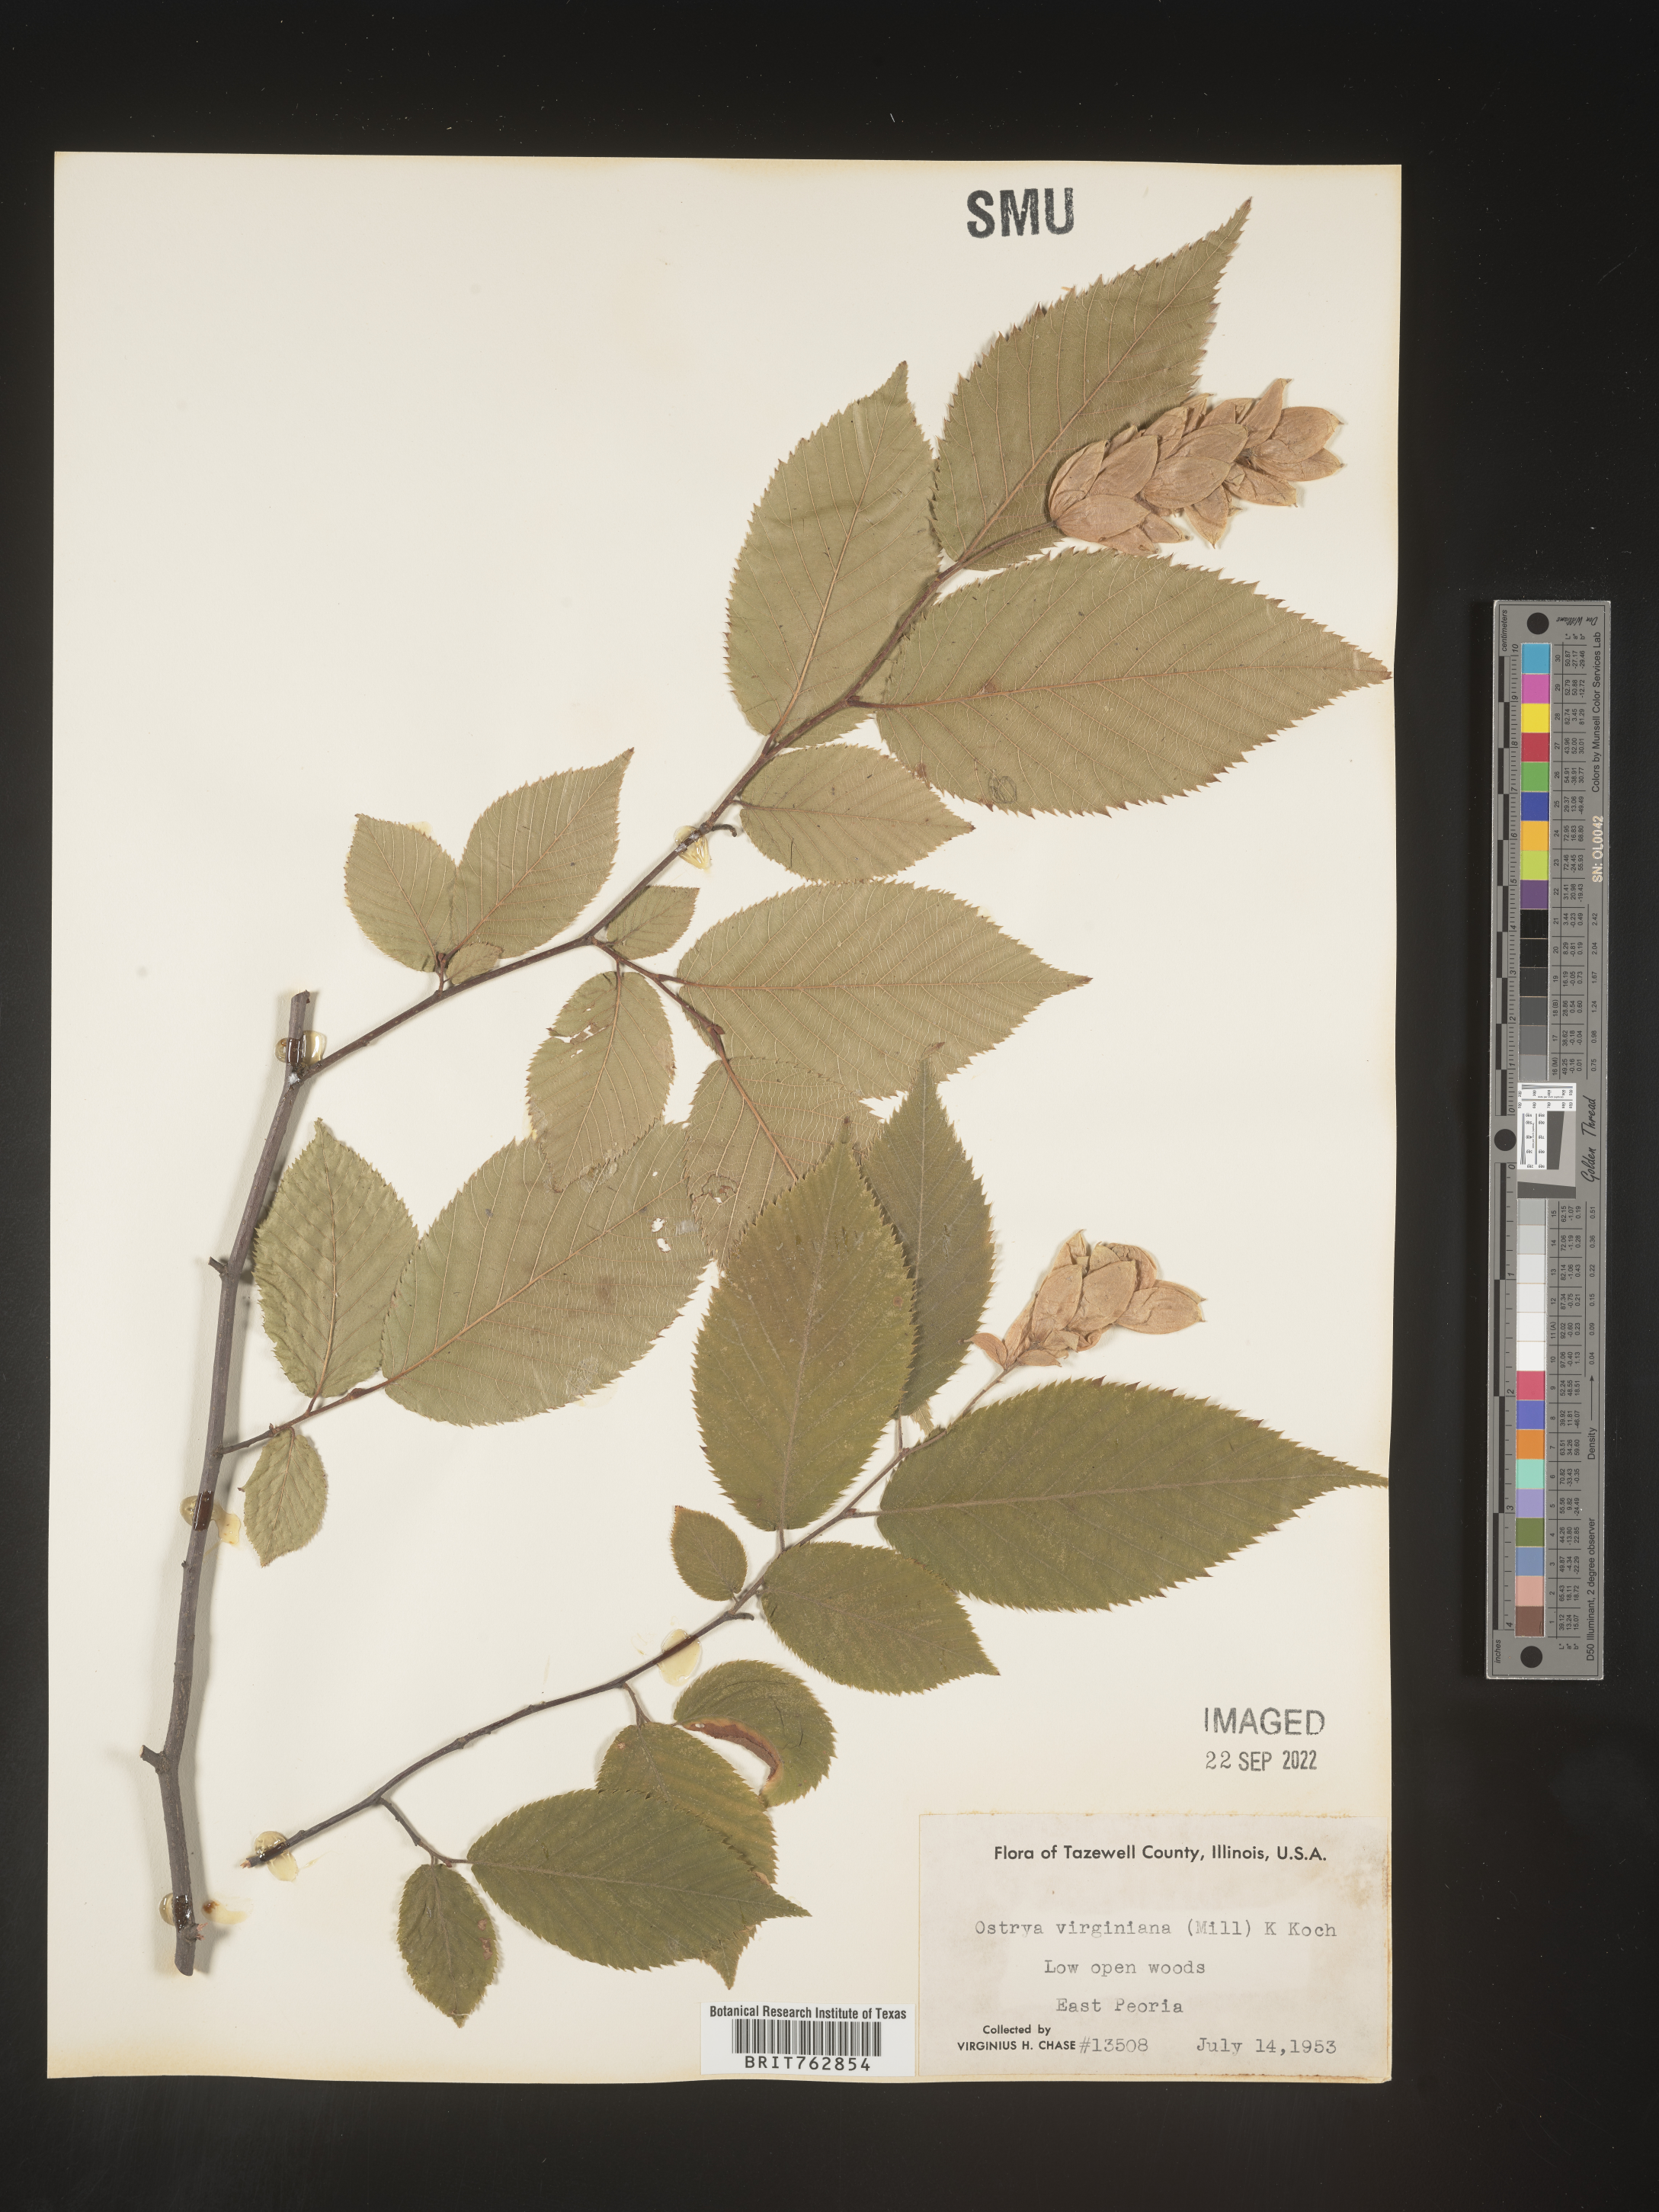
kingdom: Plantae
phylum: Tracheophyta
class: Magnoliopsida
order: Fagales
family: Betulaceae
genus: Ostrya
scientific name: Ostrya virginiana
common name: Ironwood
